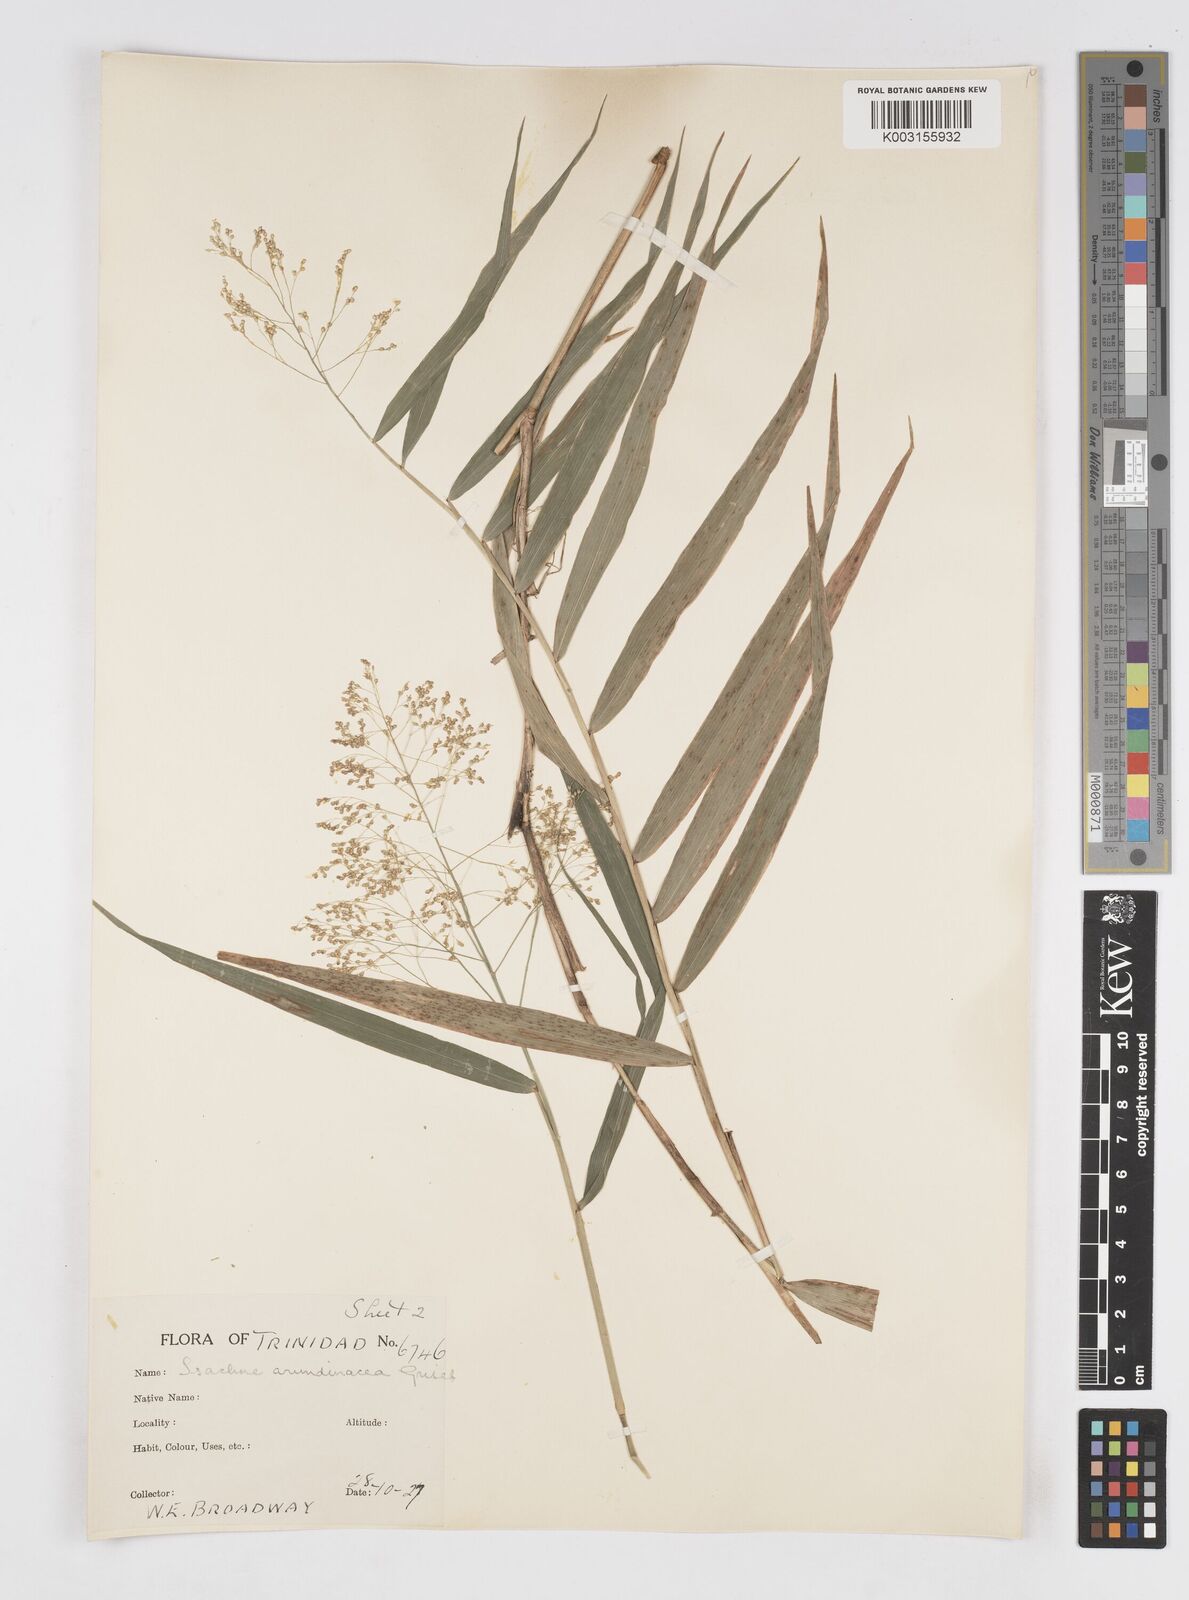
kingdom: Plantae
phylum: Tracheophyta
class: Liliopsida
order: Poales
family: Poaceae
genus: Isachne
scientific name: Isachne arundinacea
